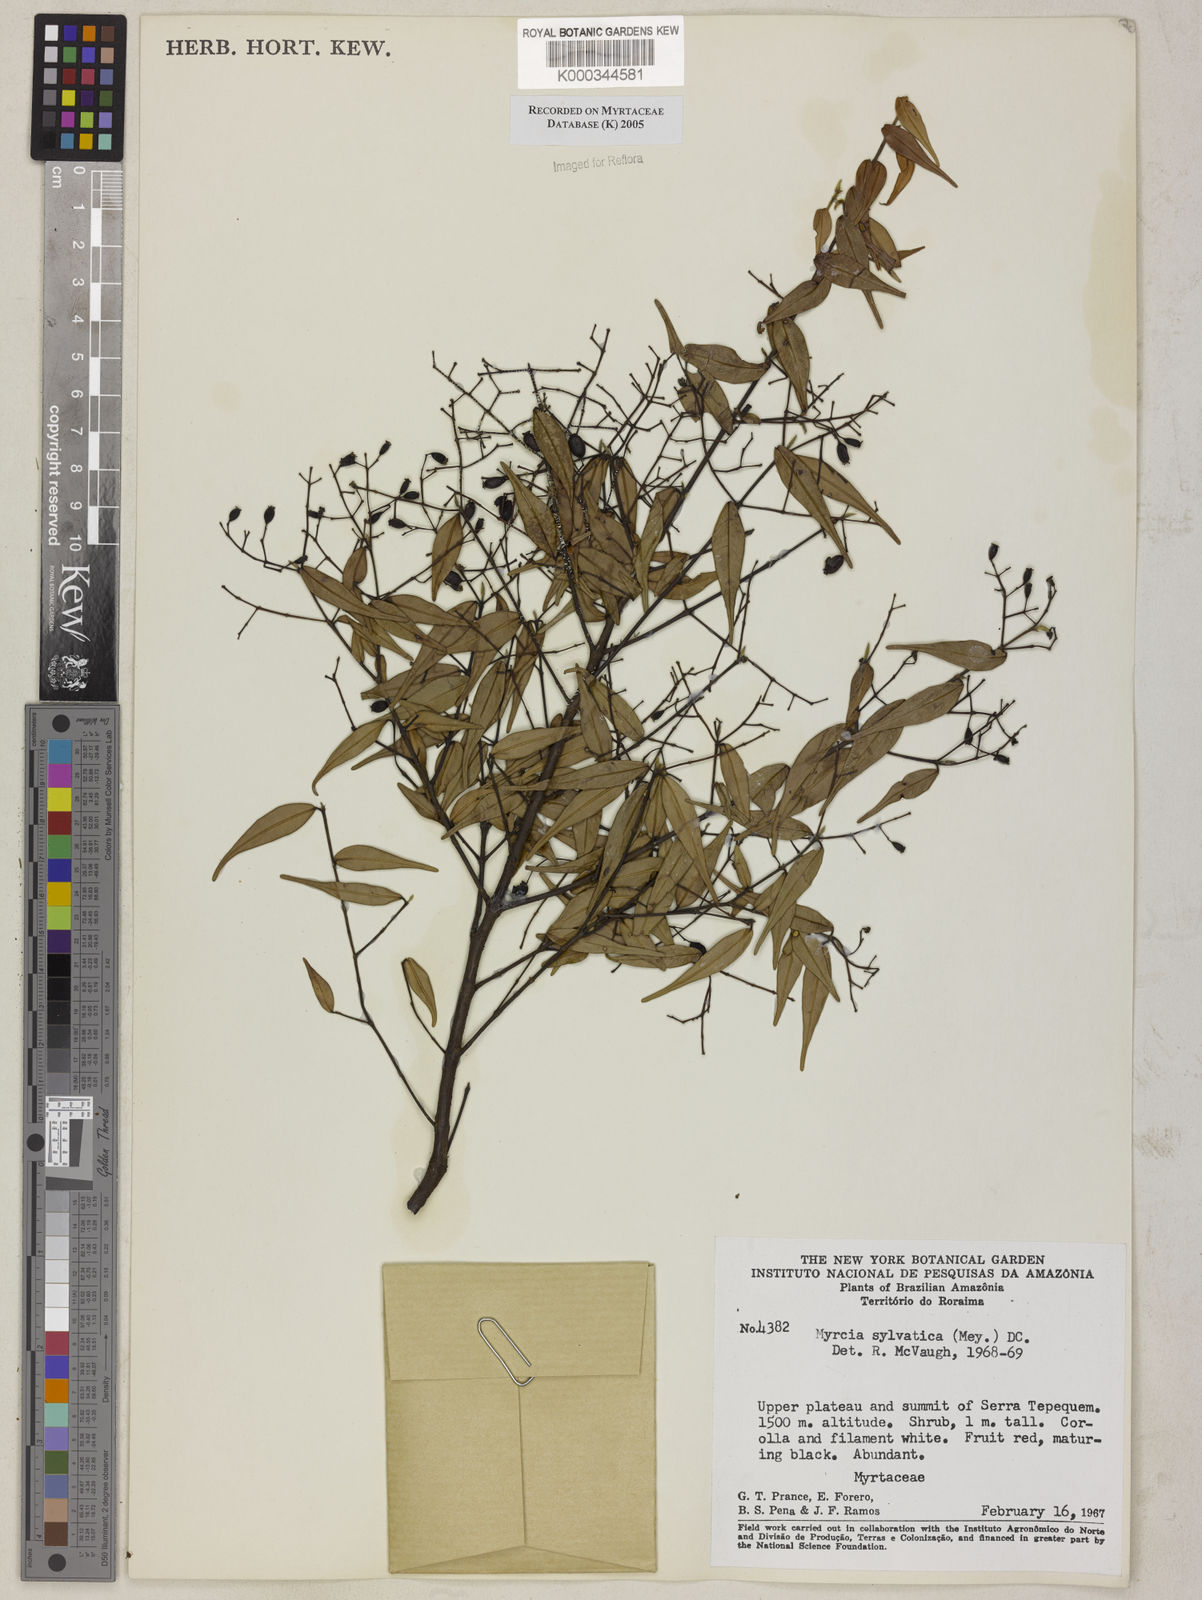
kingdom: Plantae
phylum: Tracheophyta
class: Magnoliopsida
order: Myrtales
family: Myrtaceae
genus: Myrcia
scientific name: Myrcia sylvatica
